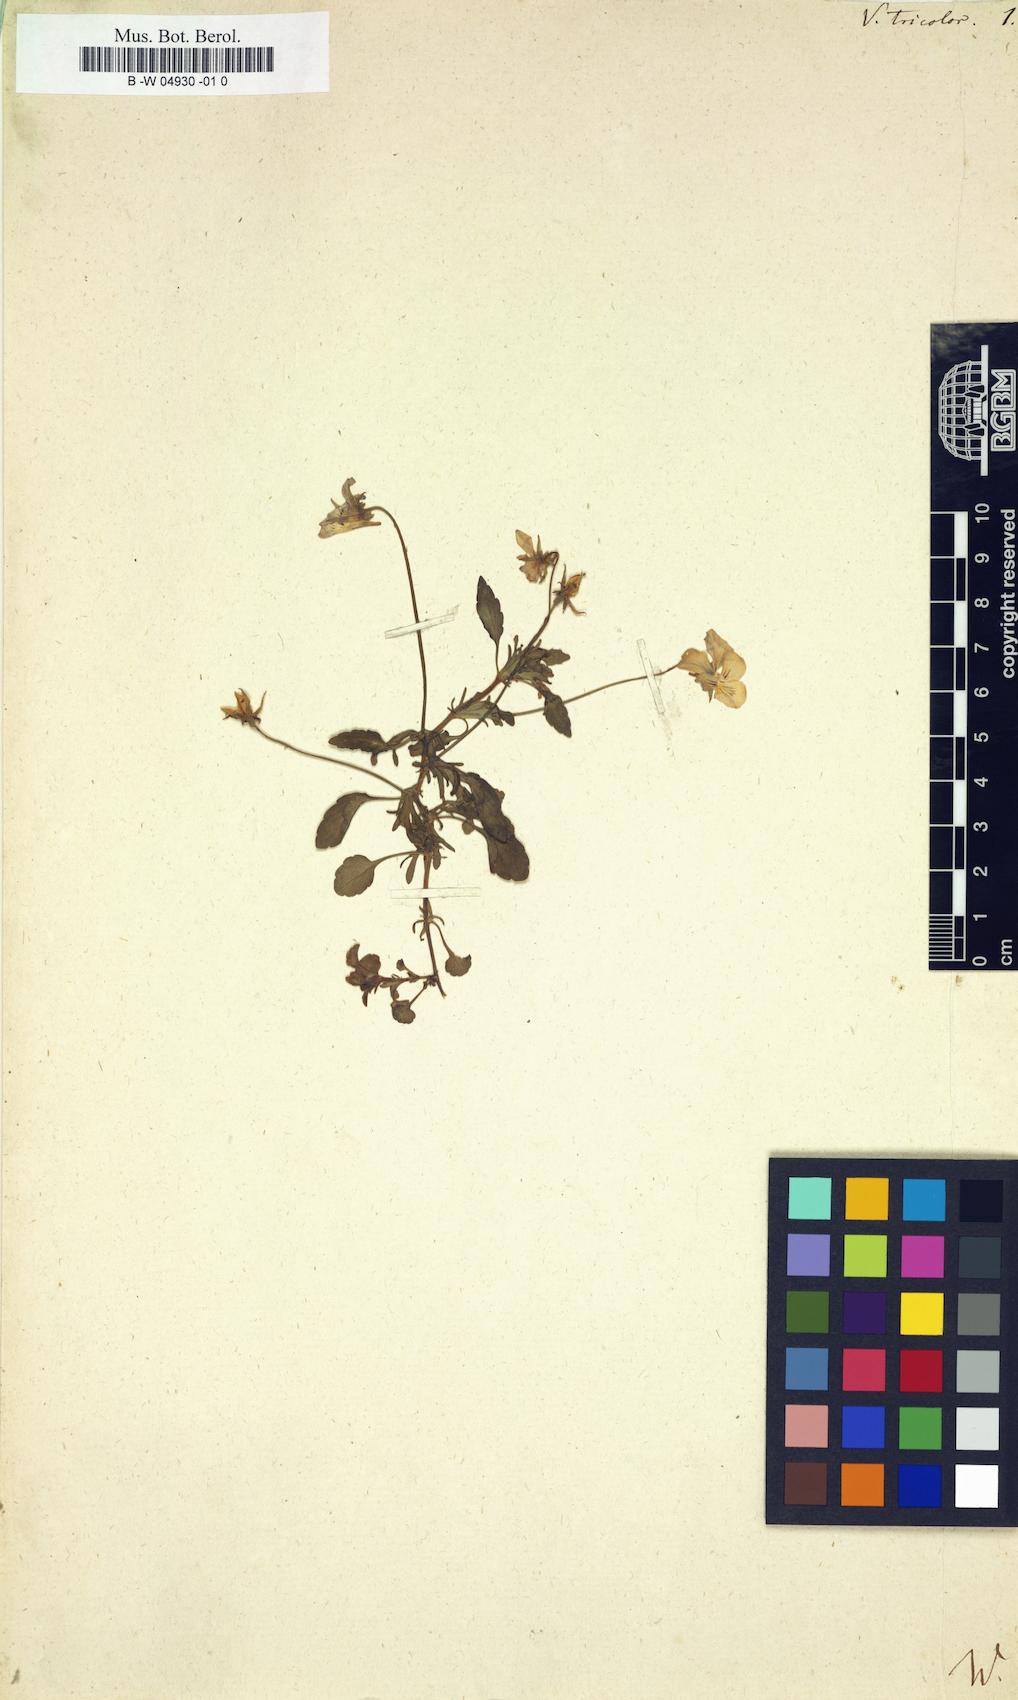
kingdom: Plantae
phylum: Tracheophyta
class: Magnoliopsida
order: Malpighiales
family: Violaceae
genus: Viola
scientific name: Viola tricolor
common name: Pansy
